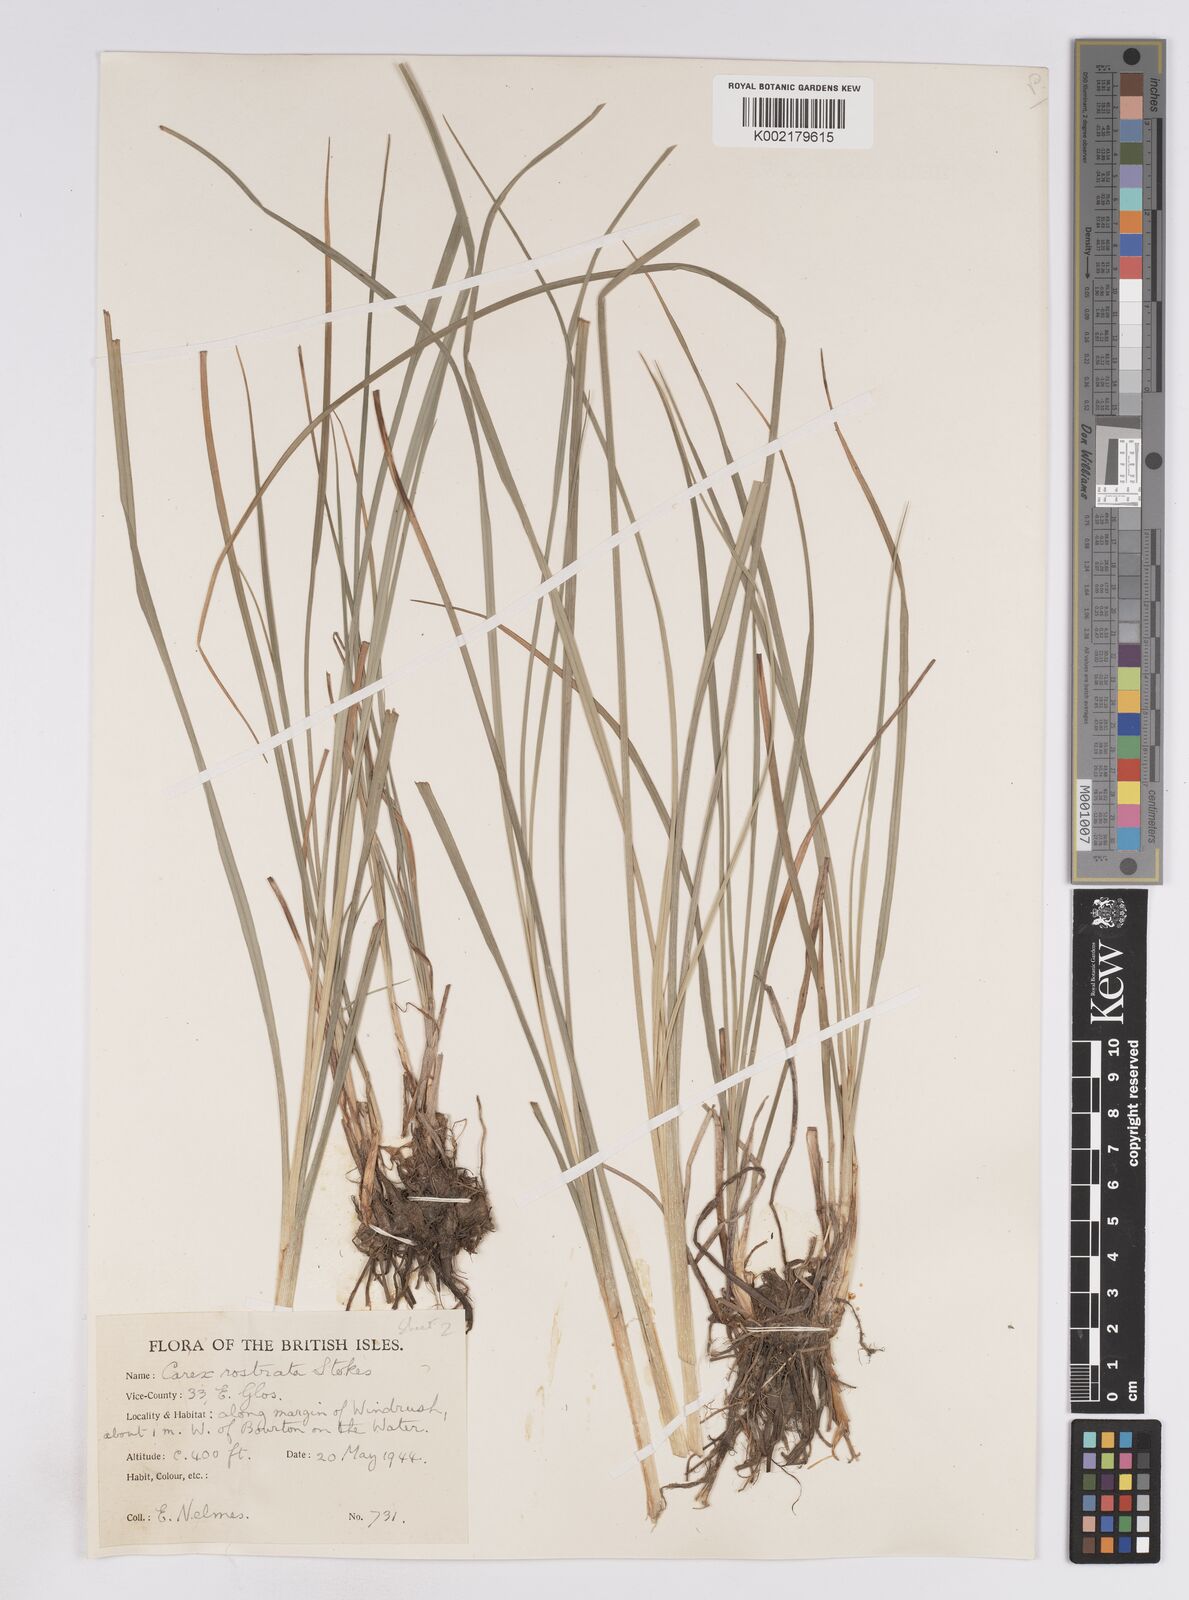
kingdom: Plantae
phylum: Tracheophyta
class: Liliopsida
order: Poales
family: Cyperaceae
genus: Carex
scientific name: Carex rostrata
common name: Bottle sedge
